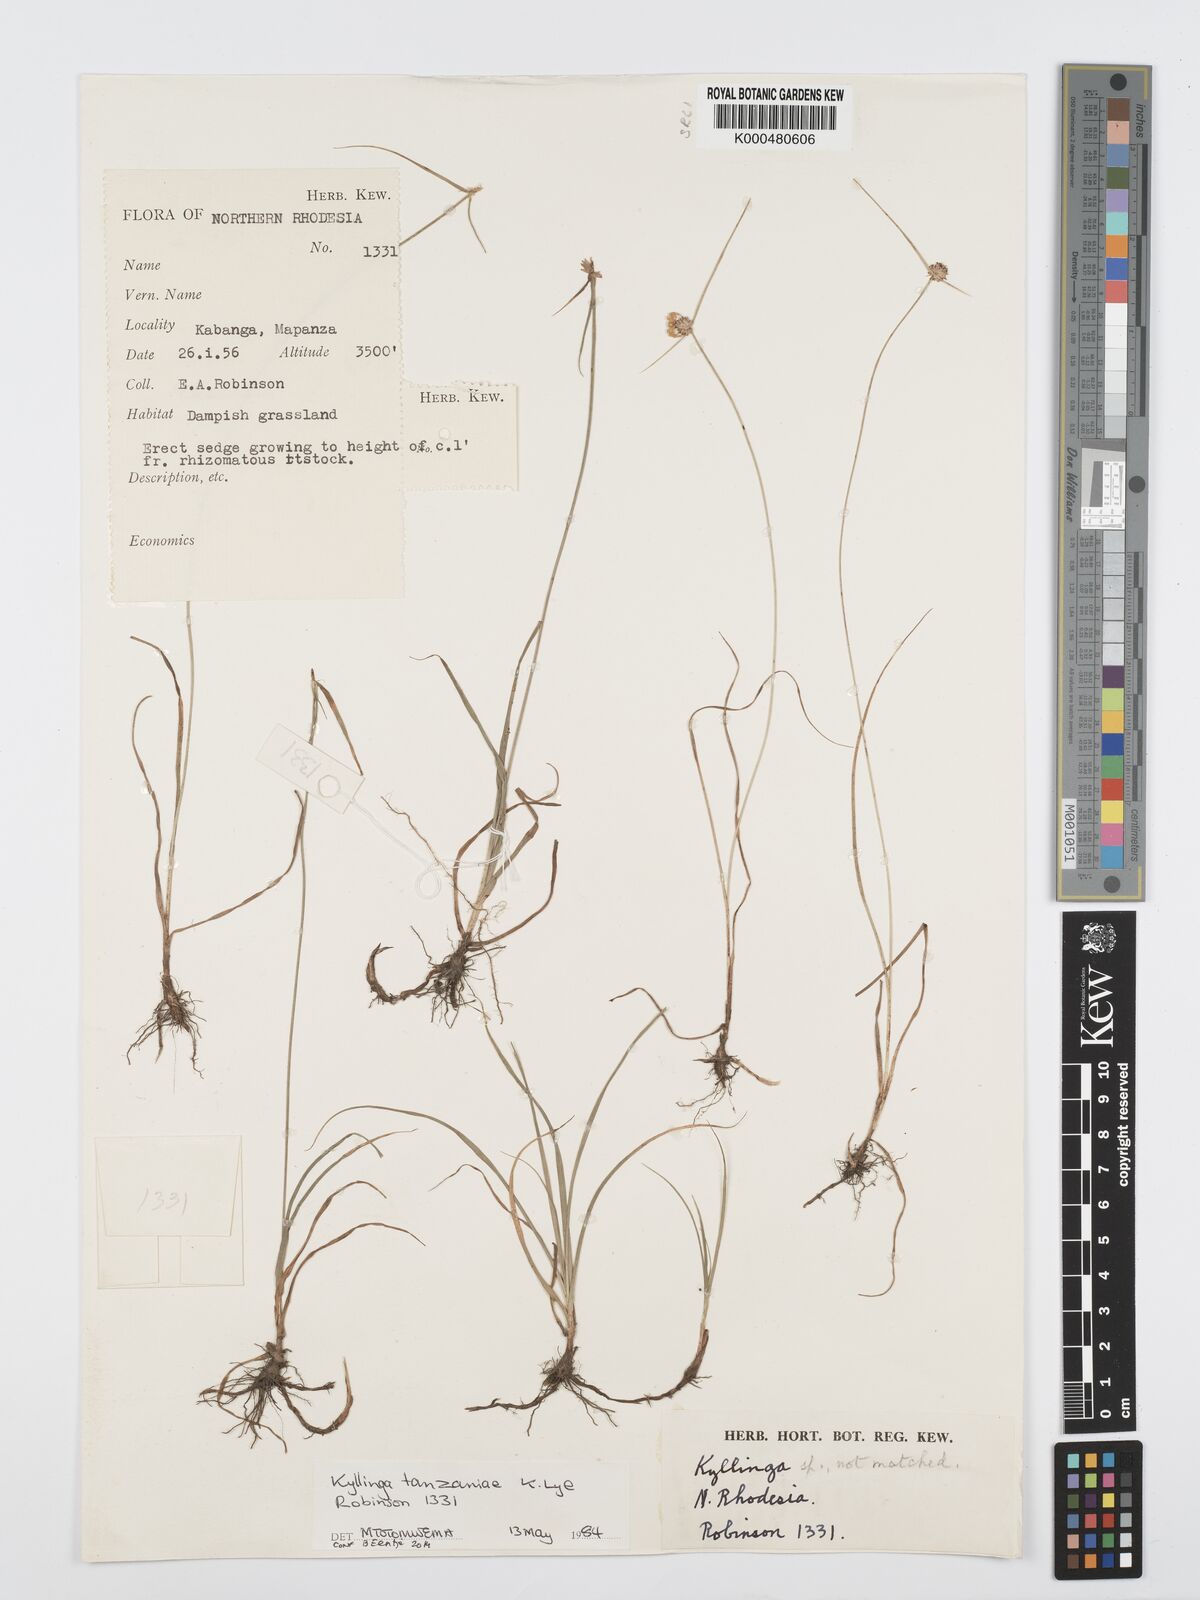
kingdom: Plantae
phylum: Tracheophyta
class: Liliopsida
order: Poales
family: Cyperaceae
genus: Cyperus
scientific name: Cyperus tanzaniae
